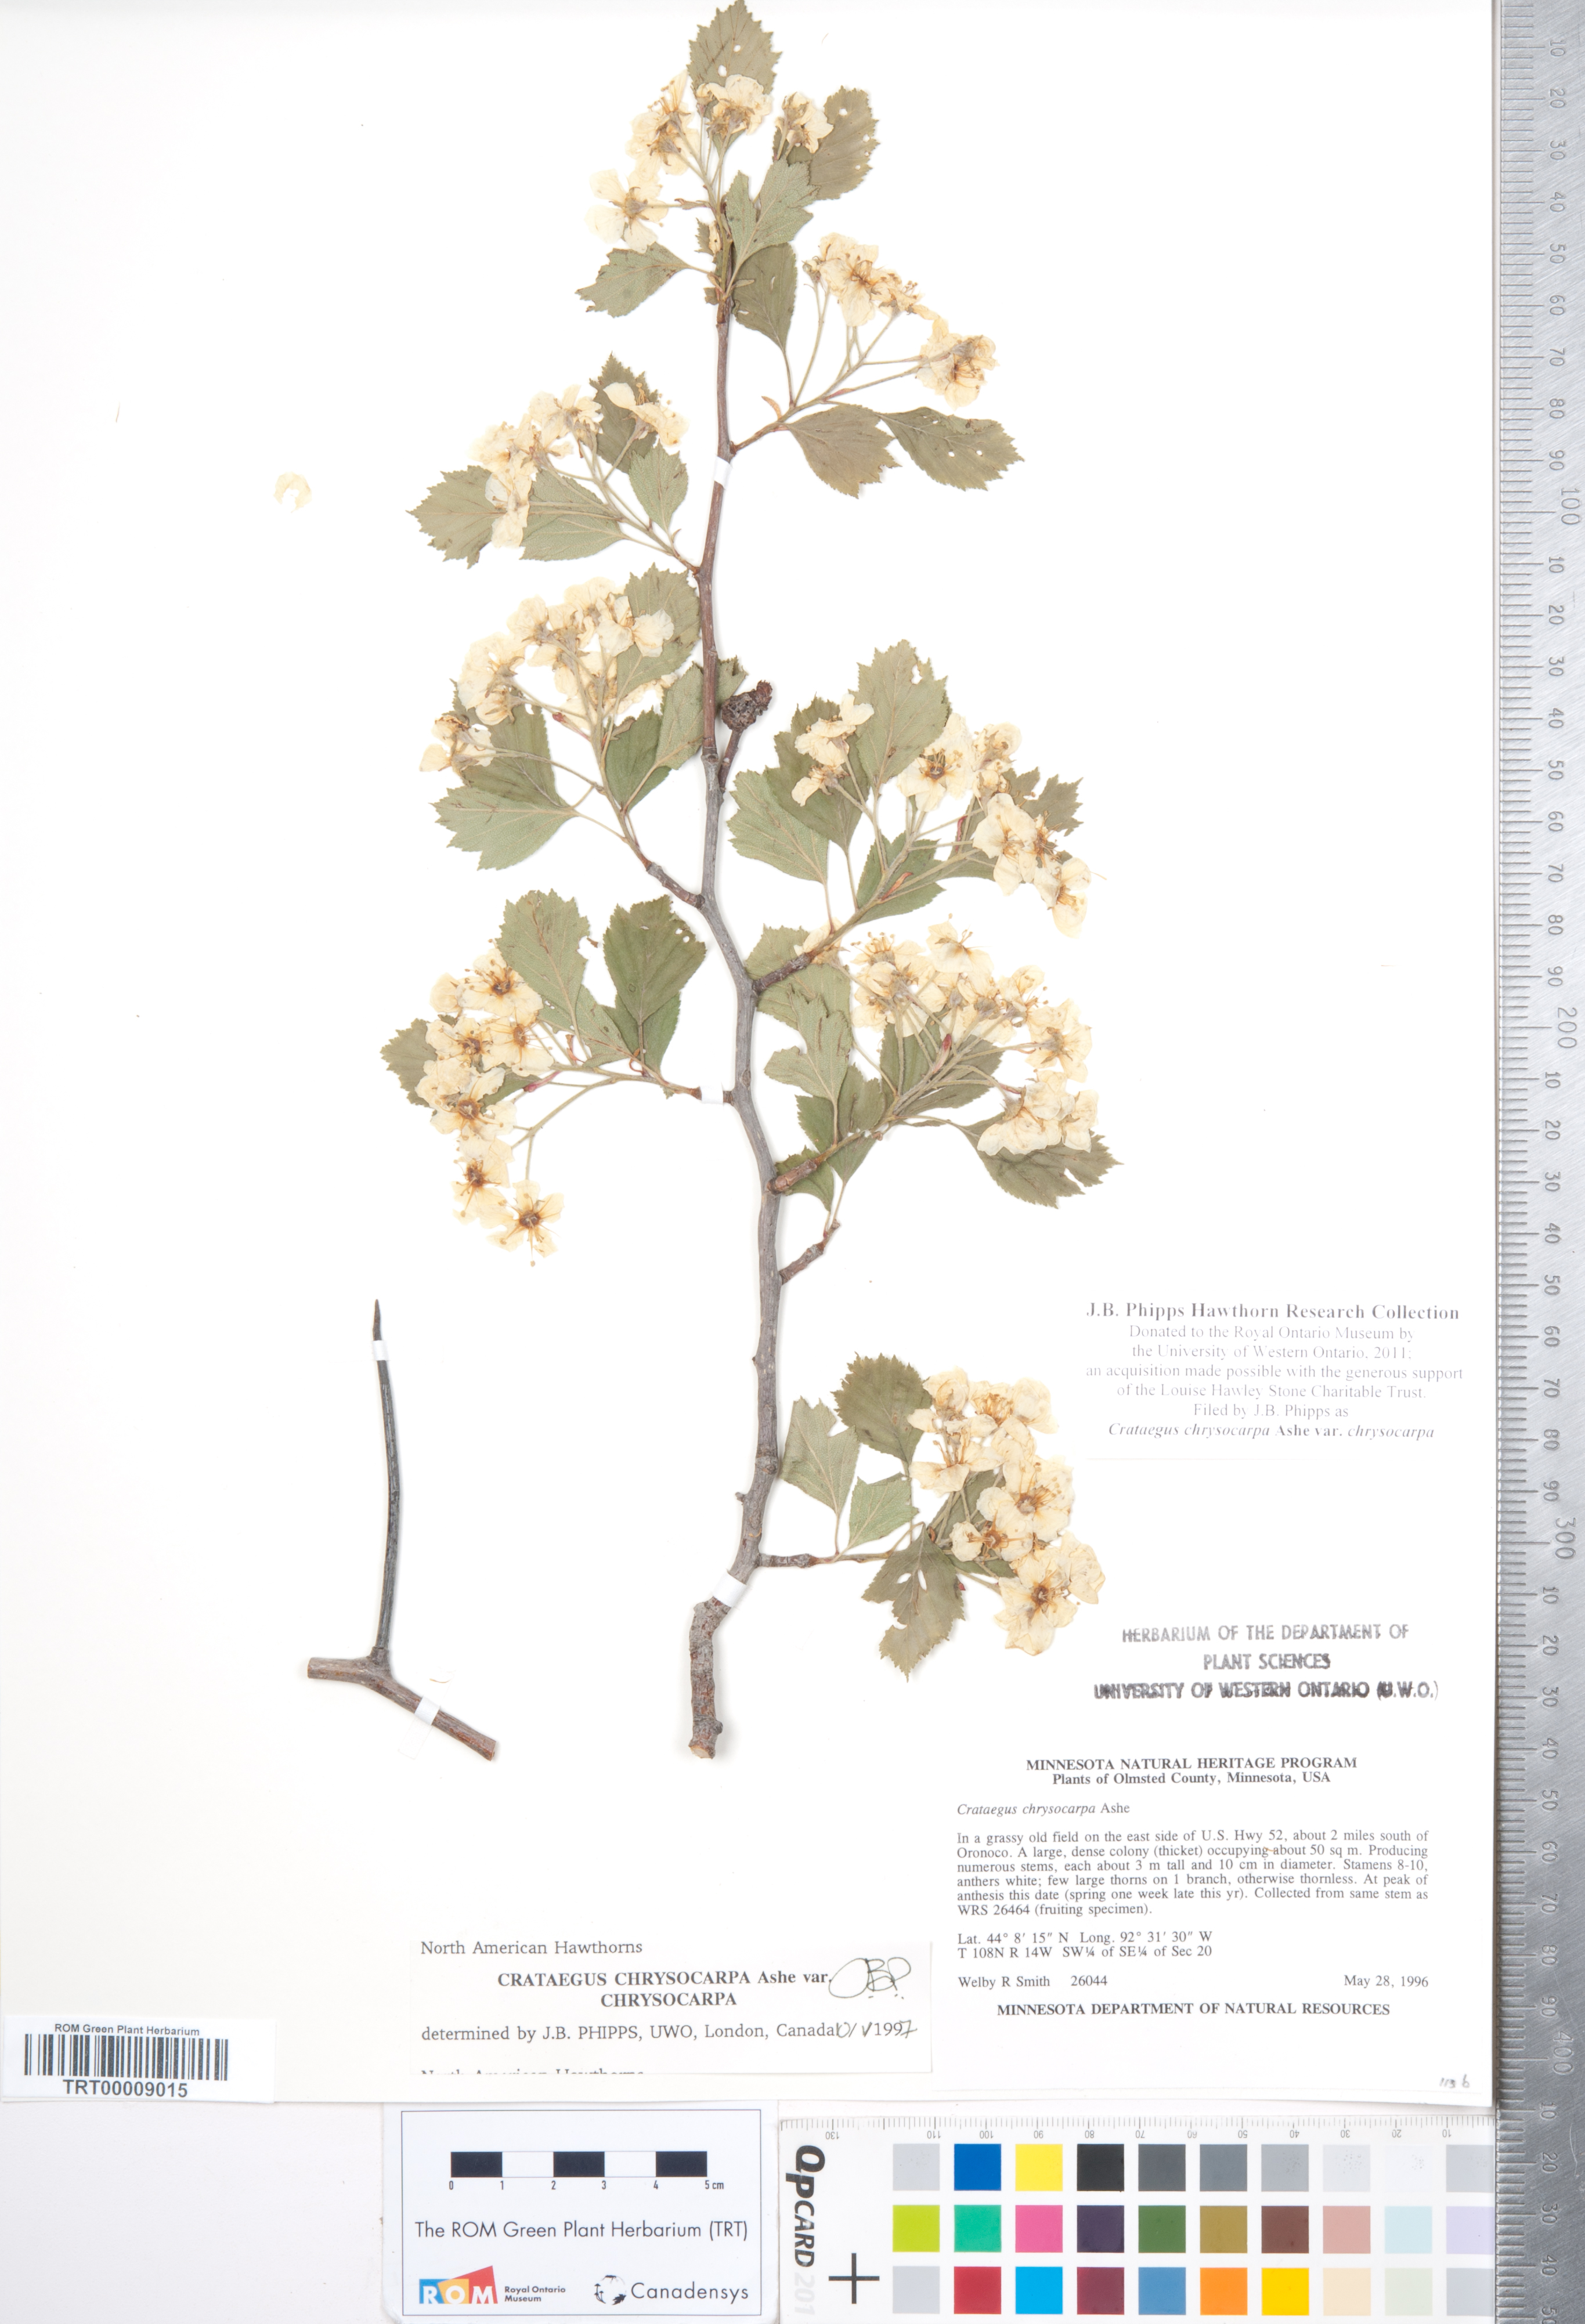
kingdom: Plantae
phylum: Tracheophyta
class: Magnoliopsida
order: Rosales
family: Rosaceae
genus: Crataegus
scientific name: Crataegus chrysocarpa
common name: Fire-berry hawthorn
